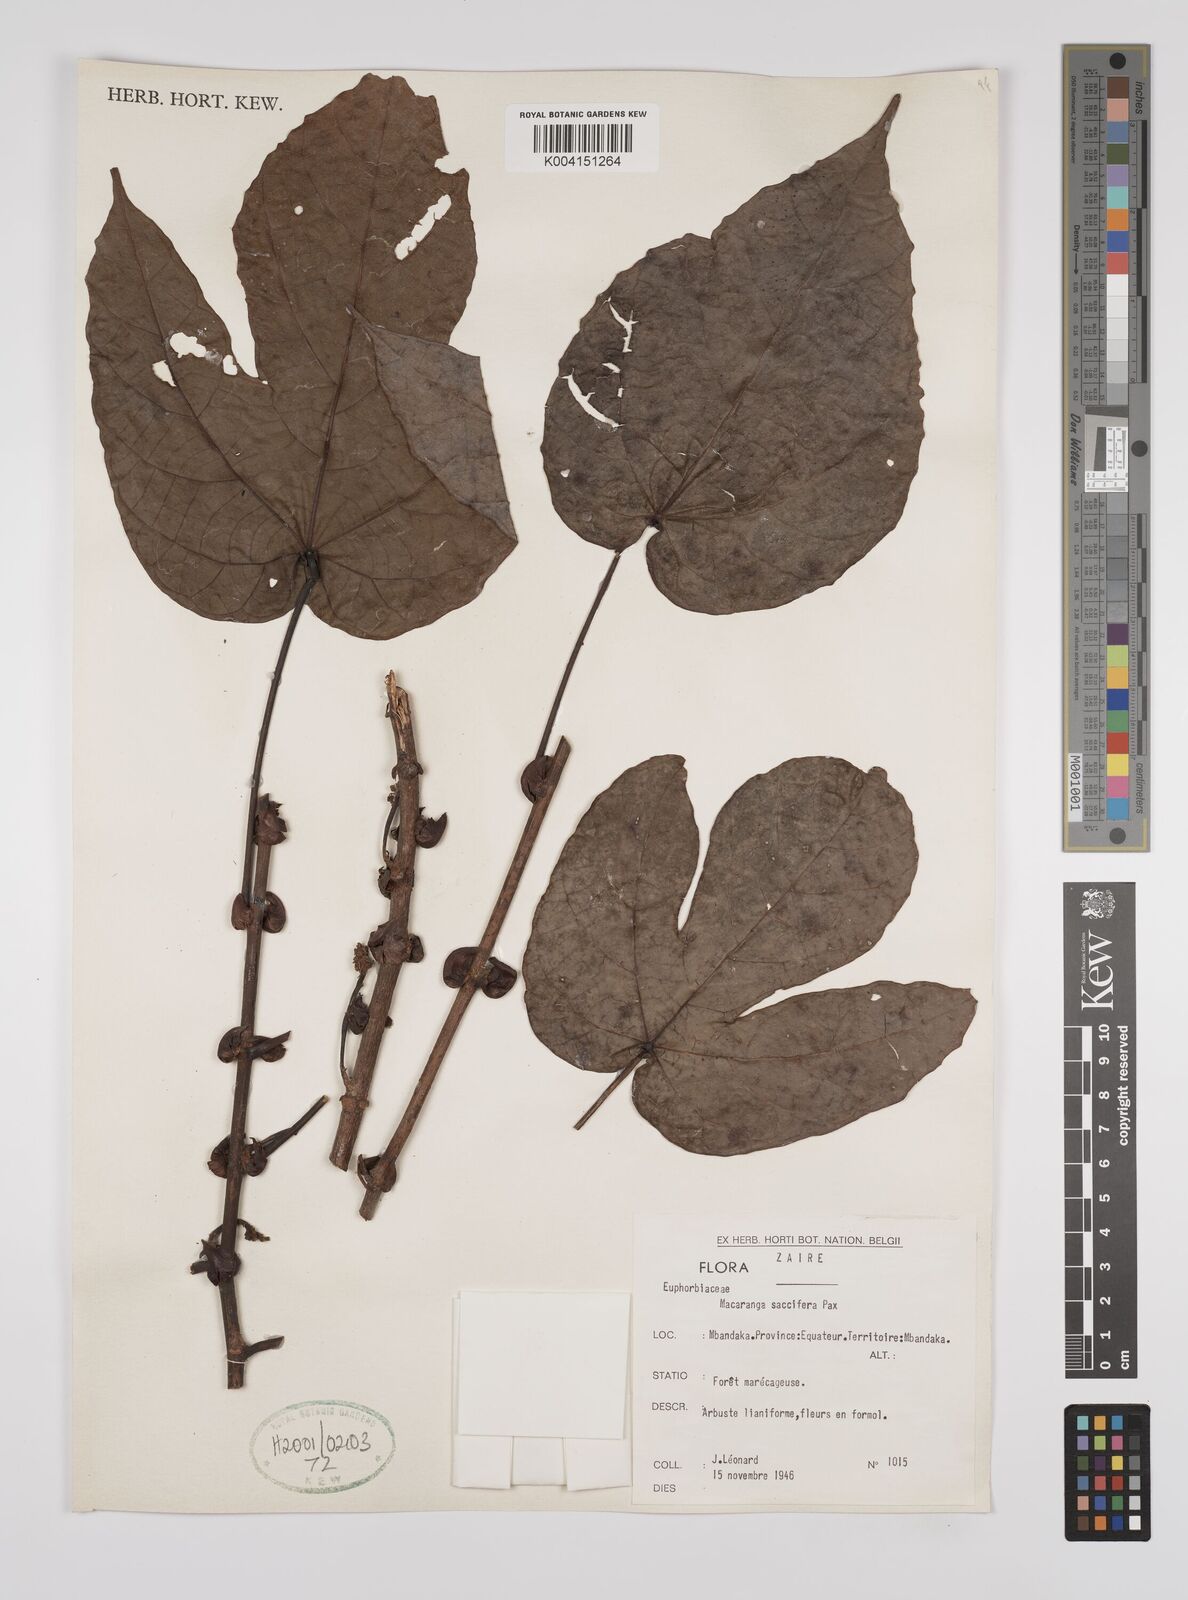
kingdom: Plantae
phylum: Tracheophyta
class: Magnoliopsida
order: Malpighiales
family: Euphorbiaceae
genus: Macaranga
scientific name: Macaranga saccifera
